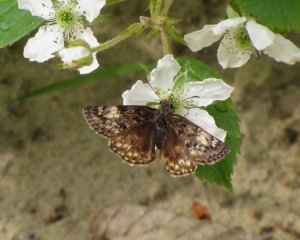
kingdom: Animalia
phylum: Arthropoda
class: Insecta
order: Lepidoptera
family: Hesperiidae
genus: Gesta
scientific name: Gesta
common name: Juvenal's Duskywing
